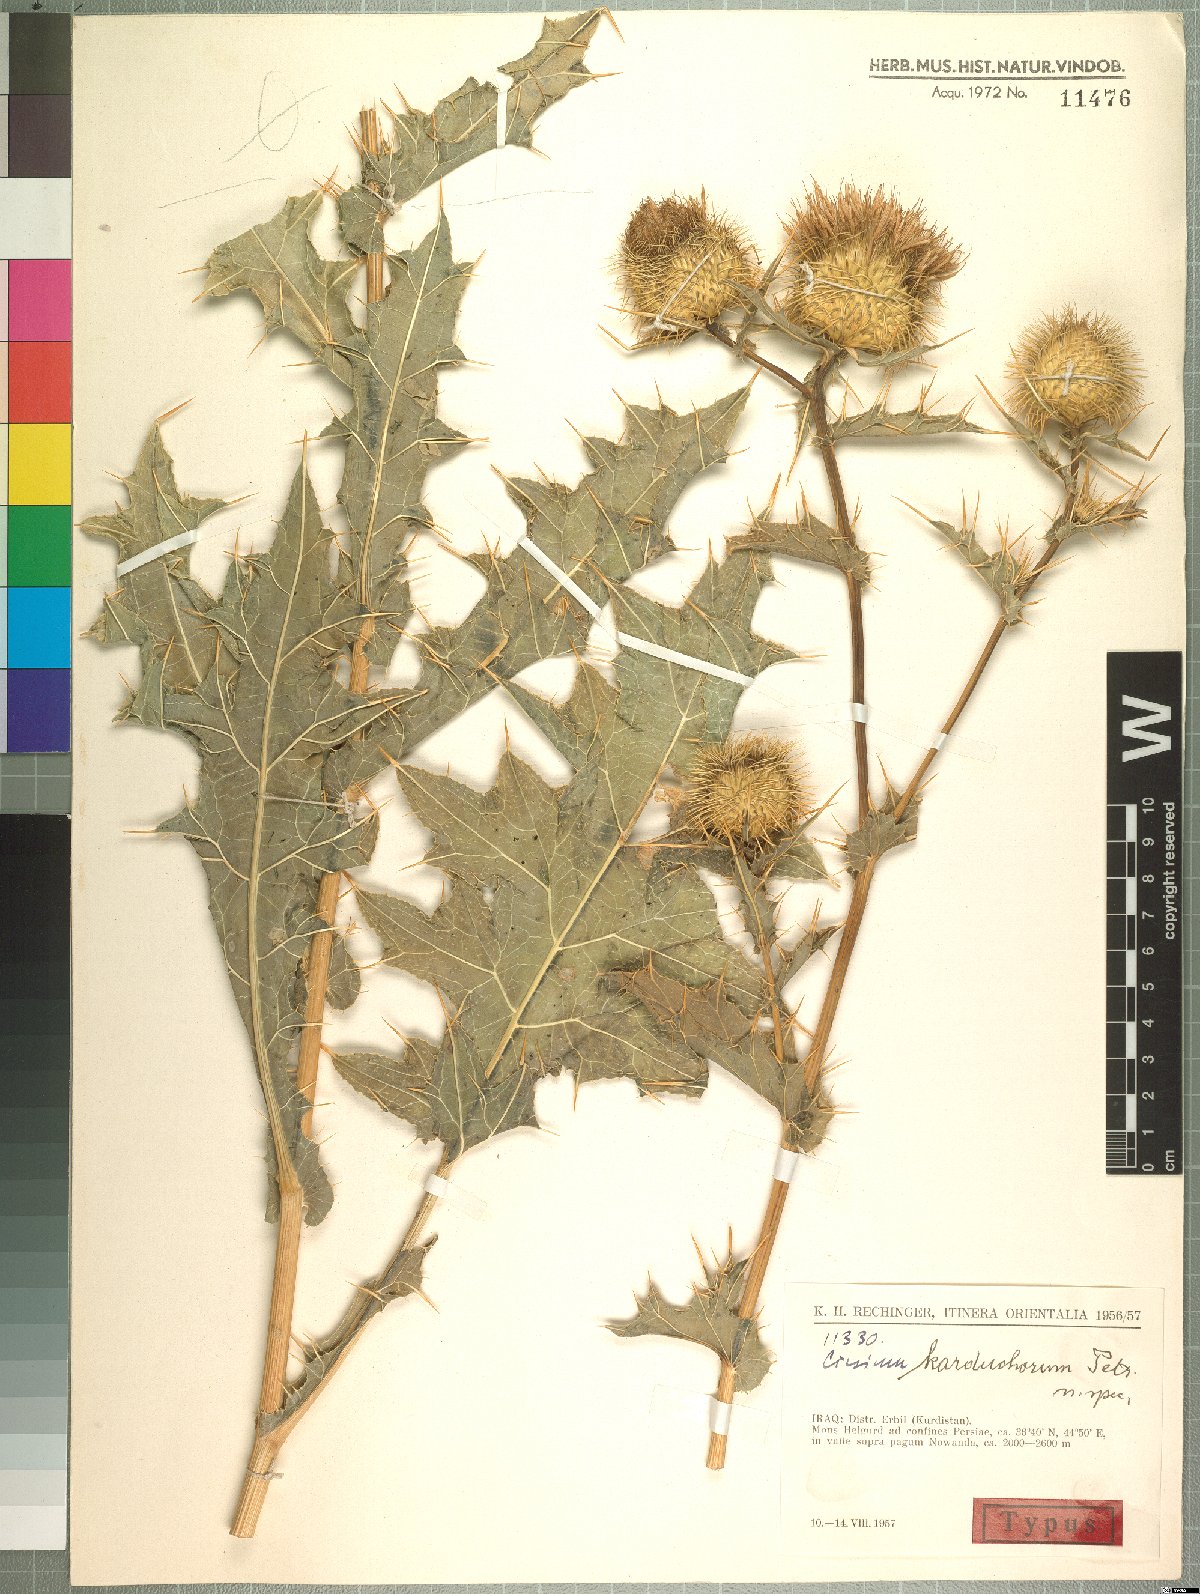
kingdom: Plantae
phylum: Tracheophyta
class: Magnoliopsida
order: Asterales
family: Asteraceae
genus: Lophiolepis
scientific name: Lophiolepis karduchorum
